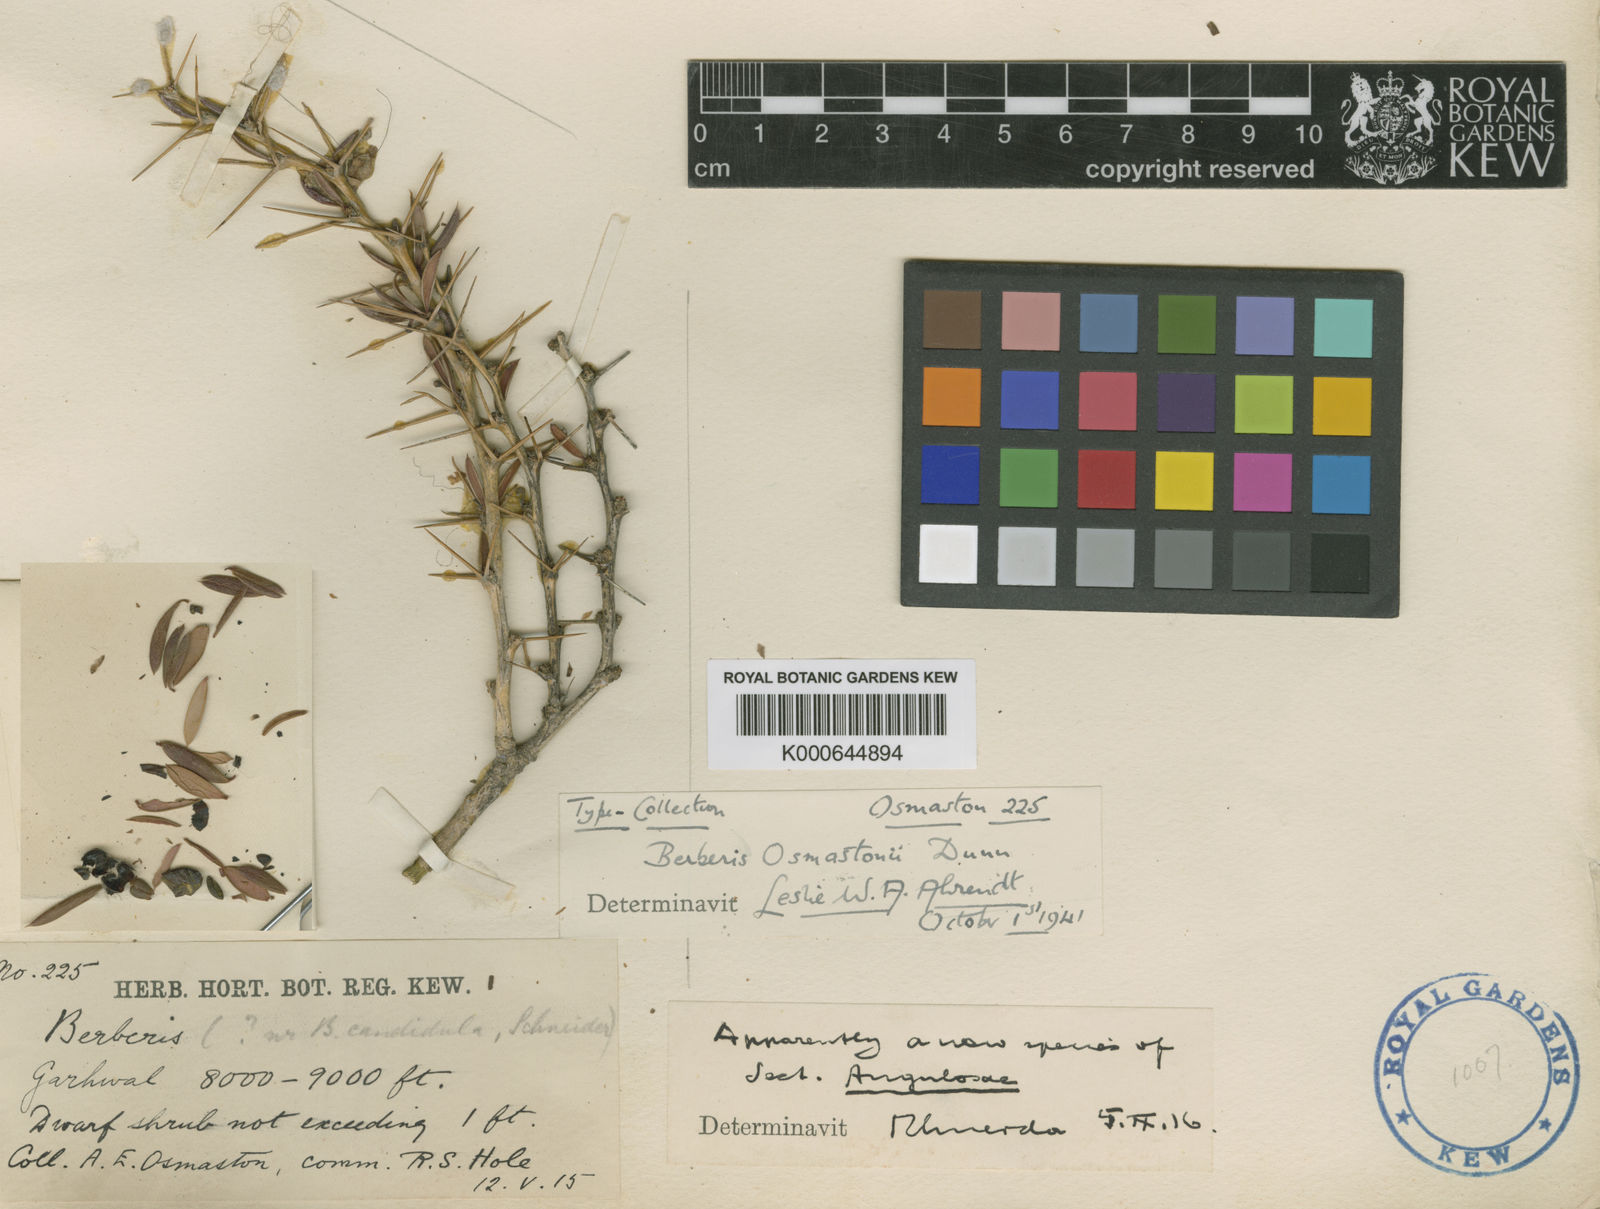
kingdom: Plantae
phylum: Tracheophyta
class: Magnoliopsida
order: Ranunculales
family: Berberidaceae
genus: Berberis
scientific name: Berberis osmastonii
